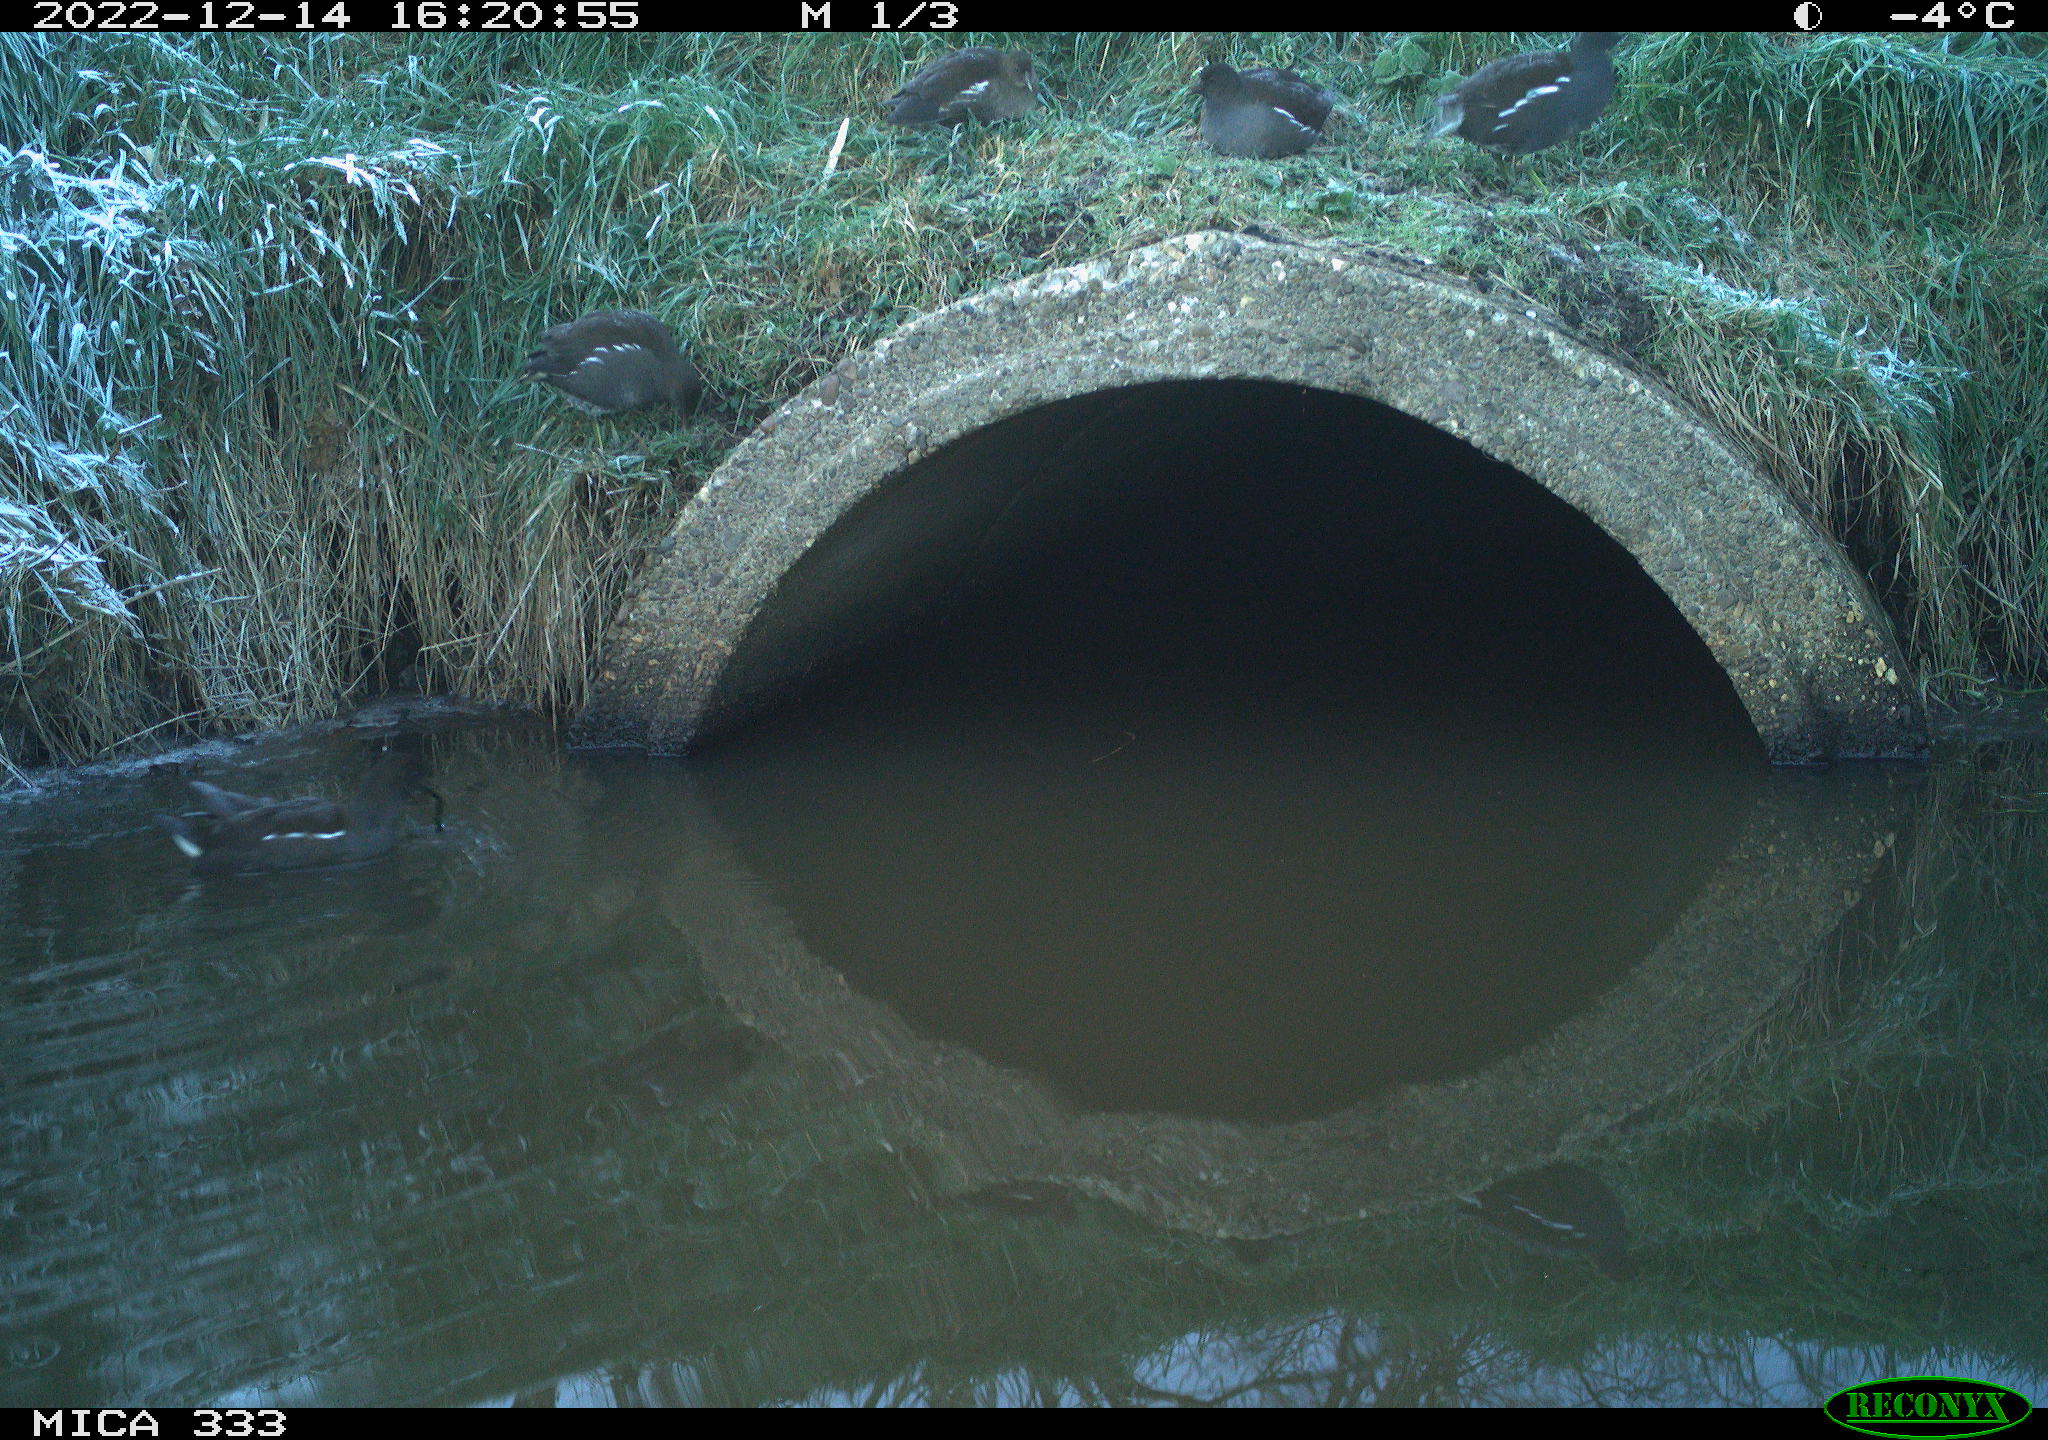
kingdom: Animalia
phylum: Chordata
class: Aves
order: Gruiformes
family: Rallidae
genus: Gallinula
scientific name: Gallinula chloropus
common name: Common moorhen
